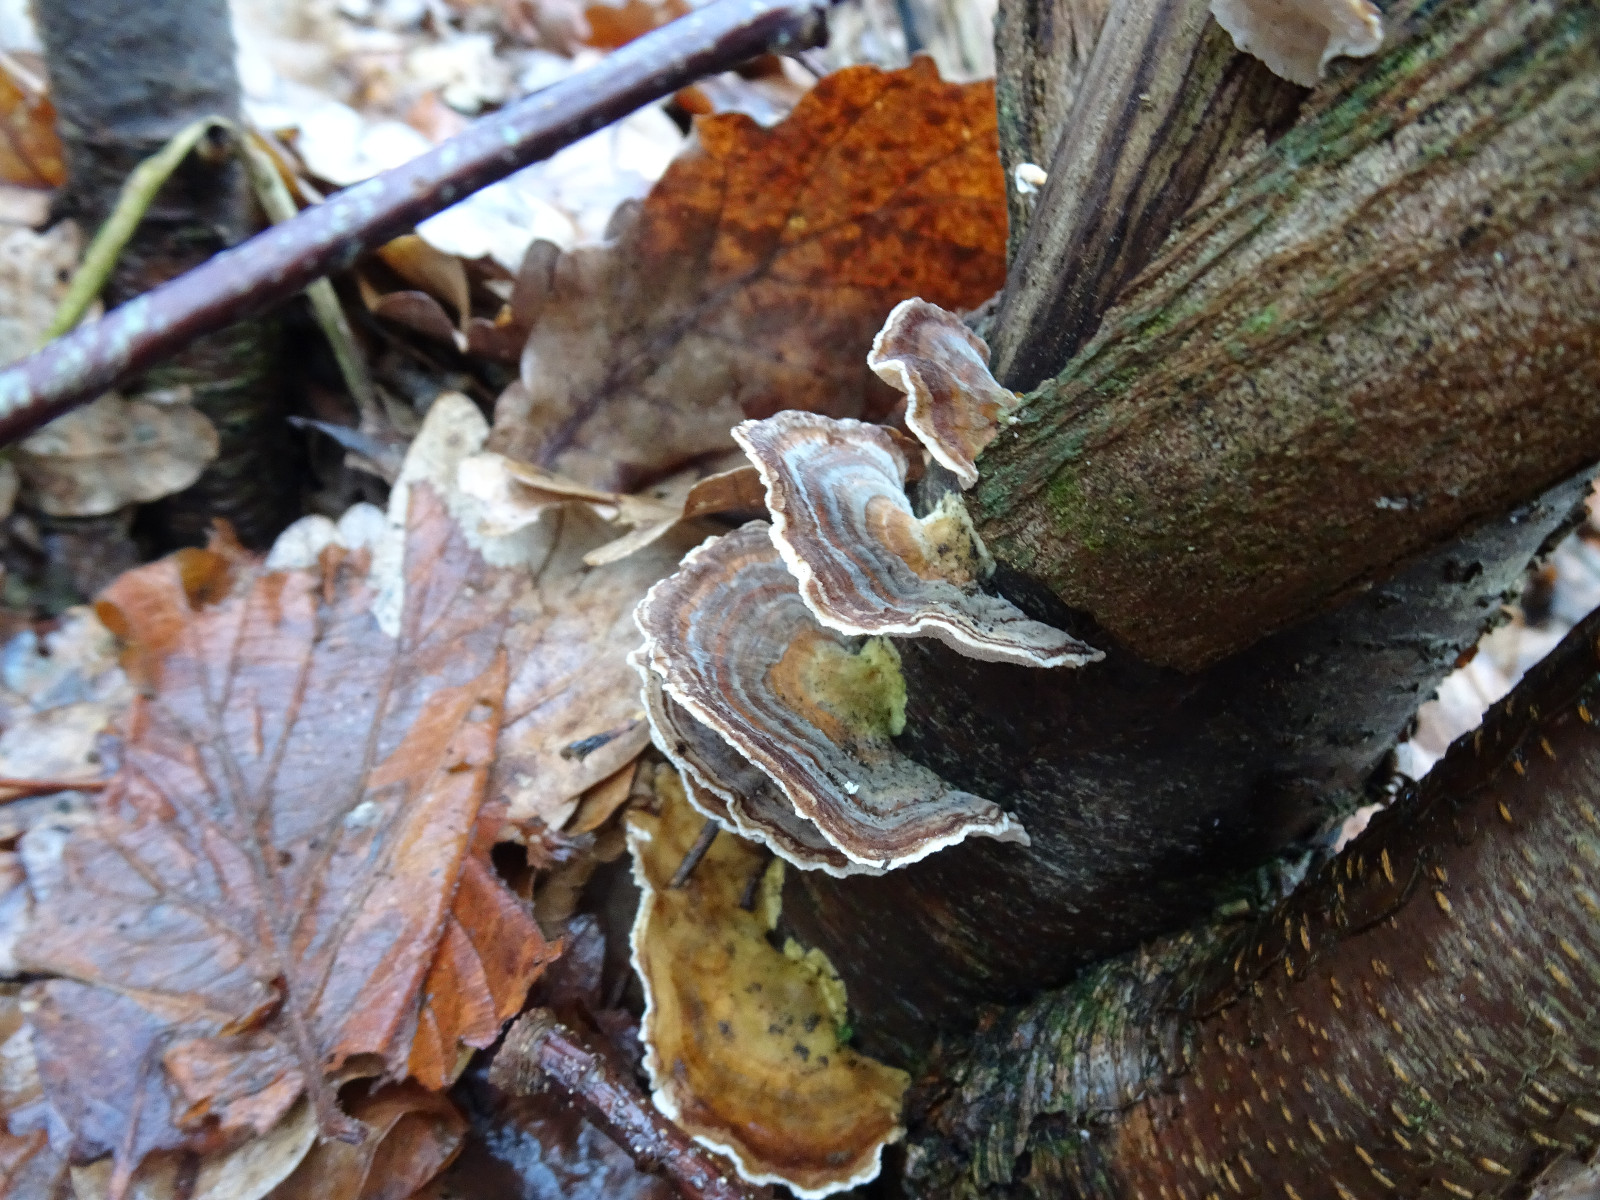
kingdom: Fungi
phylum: Basidiomycota
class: Agaricomycetes
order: Polyporales
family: Polyporaceae
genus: Trametes
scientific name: Trametes versicolor
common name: broget læderporesvamp
